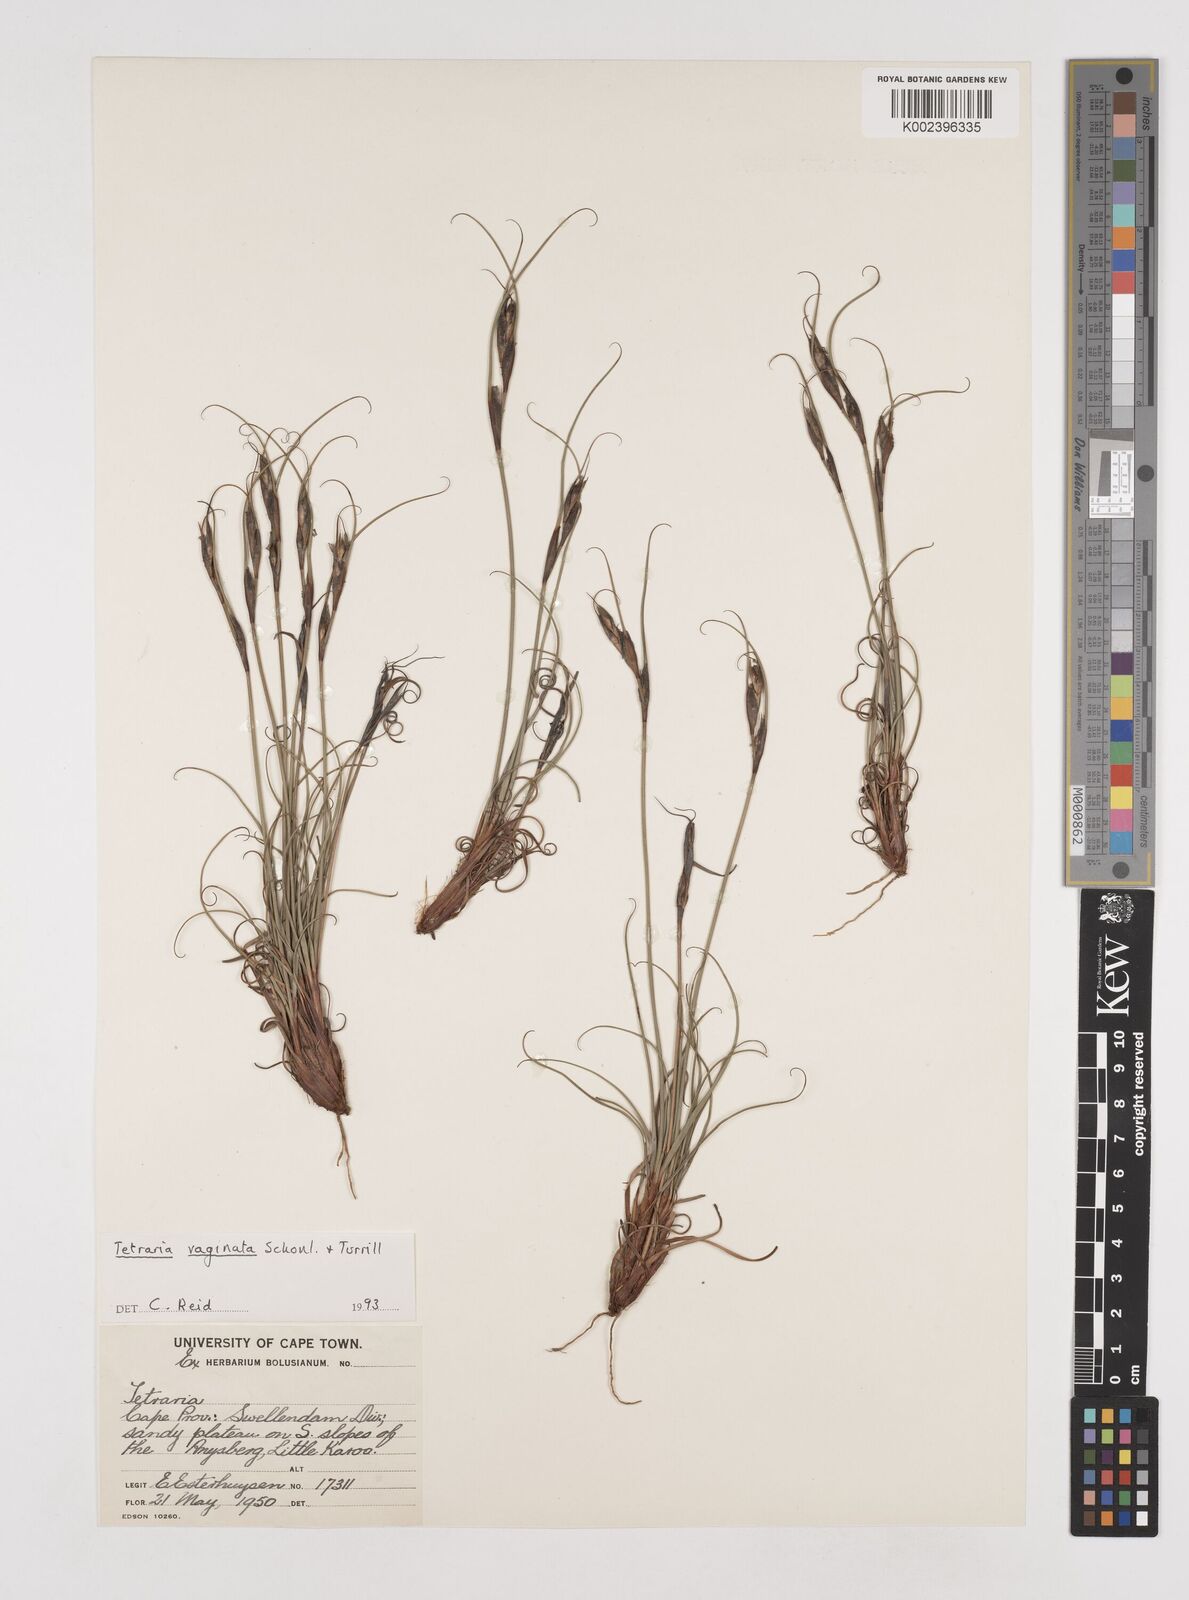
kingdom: Plantae
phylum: Tracheophyta
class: Liliopsida
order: Poales
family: Cyperaceae
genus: Tetraria
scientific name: Tetraria vaginata
